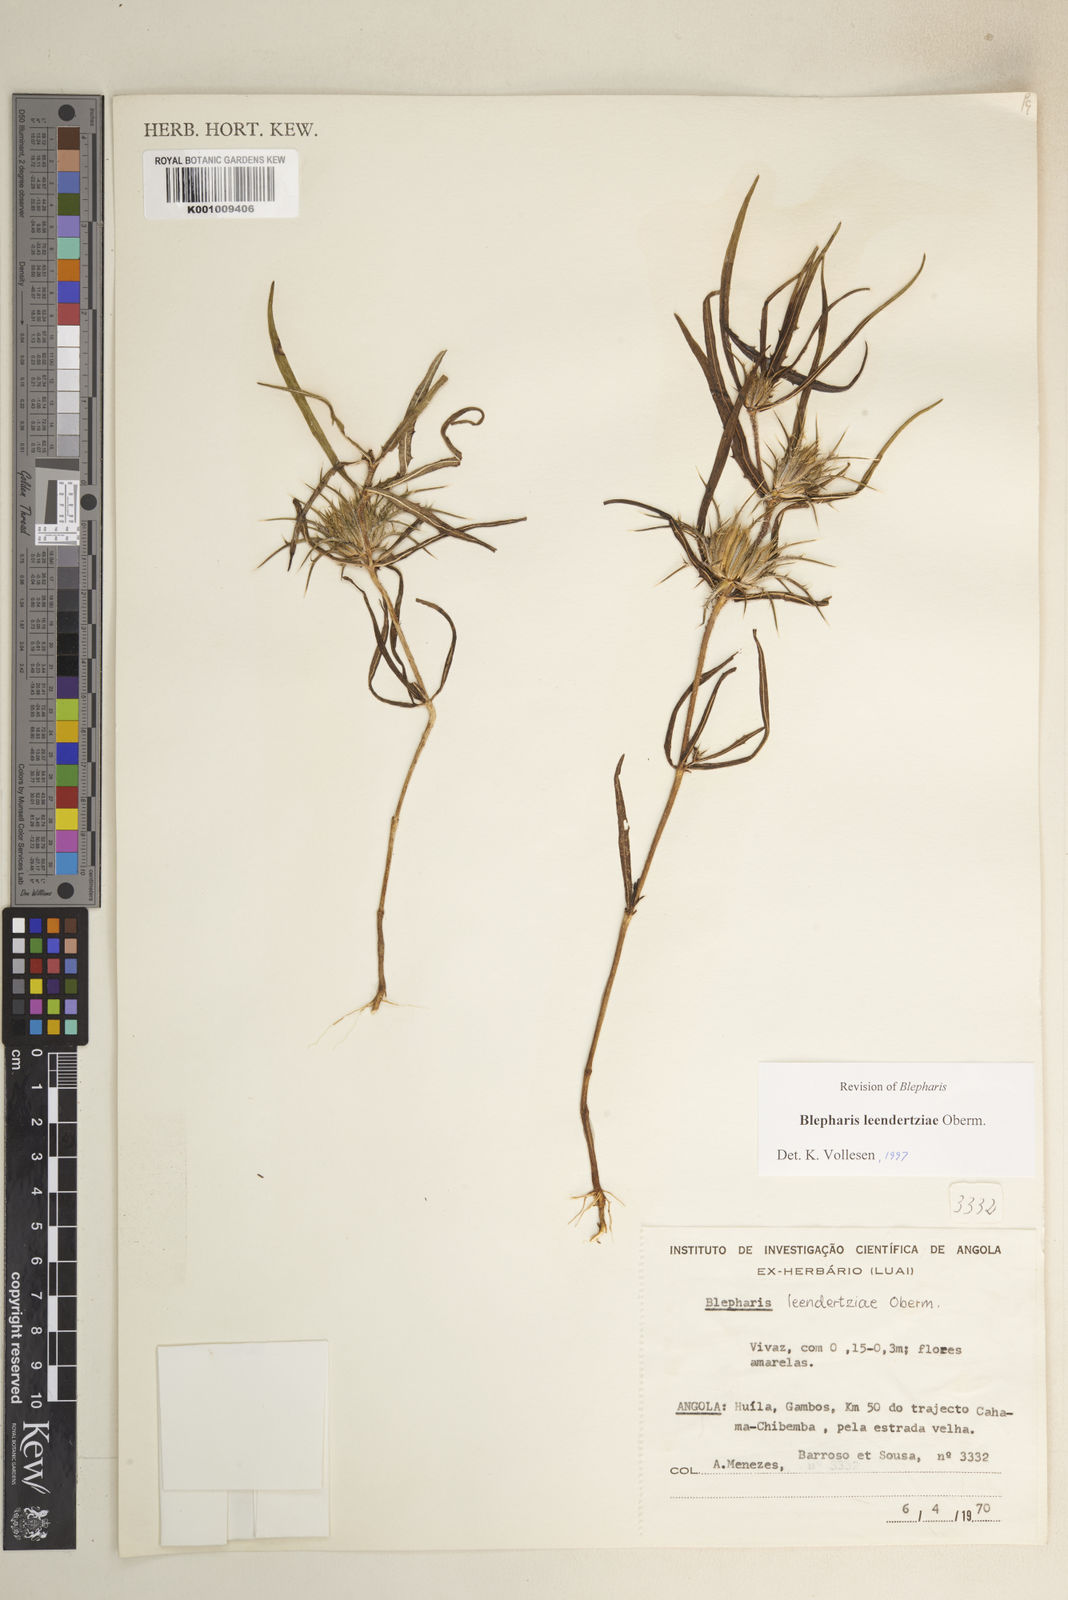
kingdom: Plantae
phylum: Tracheophyta
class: Magnoliopsida
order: Lamiales
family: Acanthaceae
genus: Blepharis
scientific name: Blepharis leendertziae
